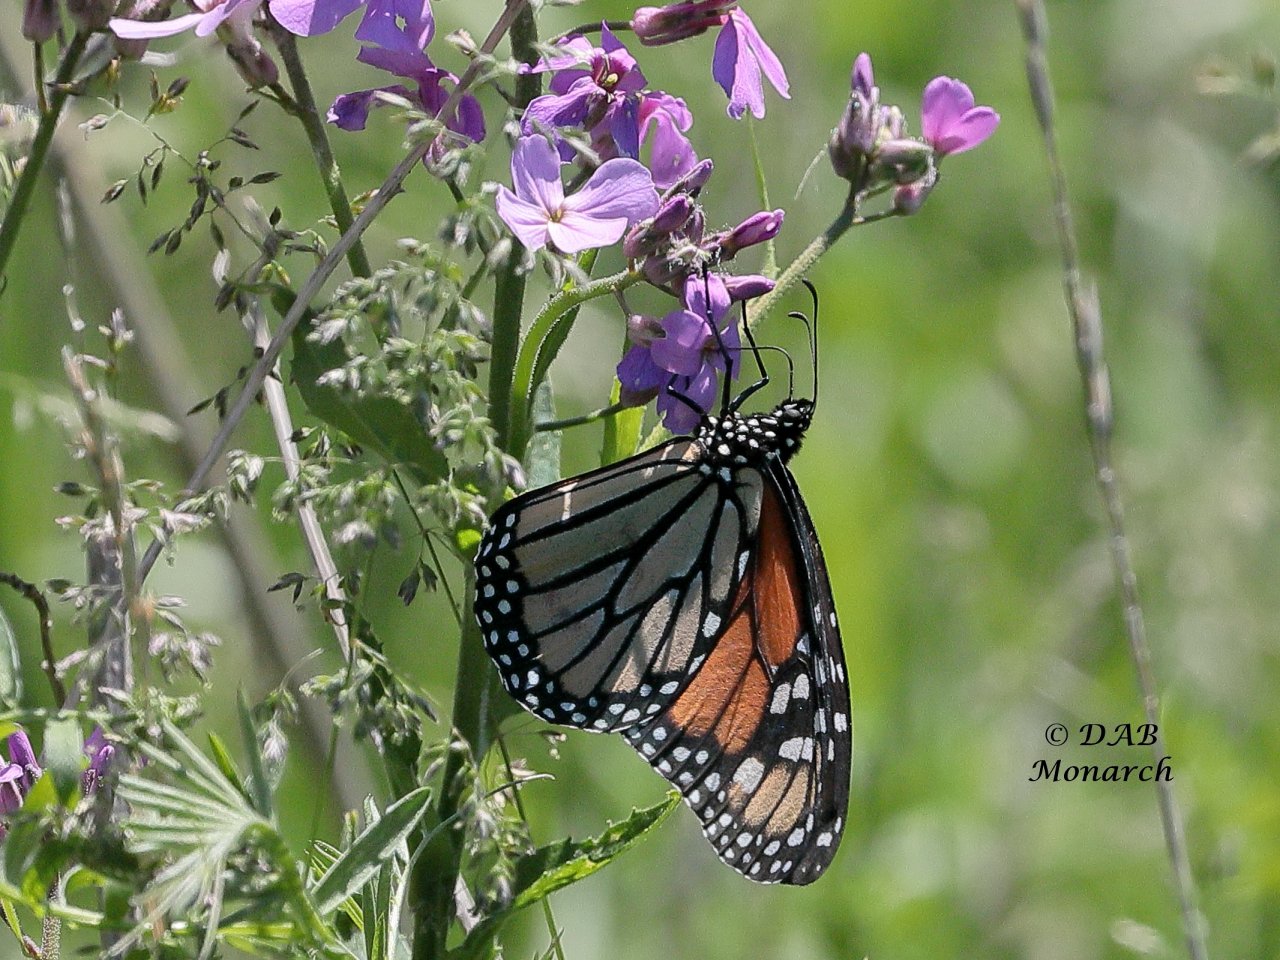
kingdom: Animalia
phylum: Arthropoda
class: Insecta
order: Lepidoptera
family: Nymphalidae
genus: Danaus
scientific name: Danaus plexippus
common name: Monarch
